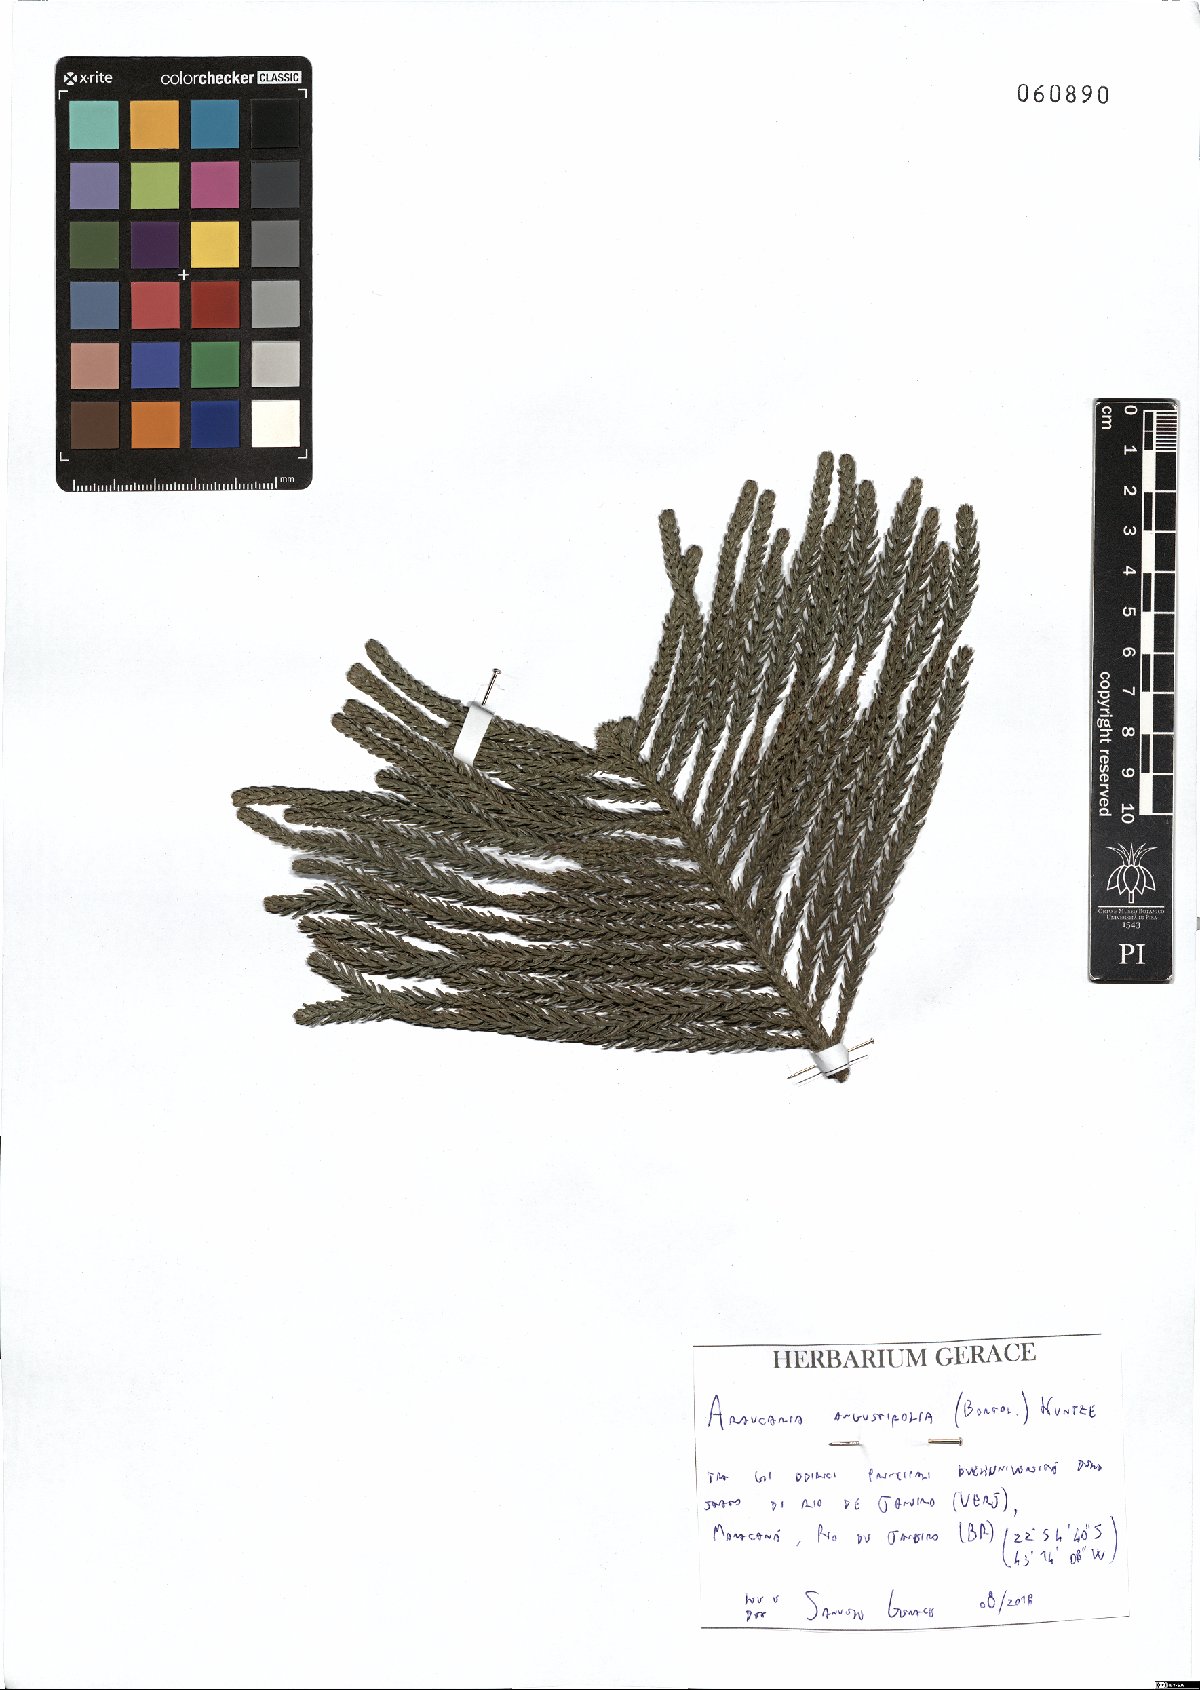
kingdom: Plantae
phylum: Tracheophyta
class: Pinopsida
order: Pinales
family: Araucariaceae
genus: Araucaria
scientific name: Araucaria angustifolia
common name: Candelabra tree
